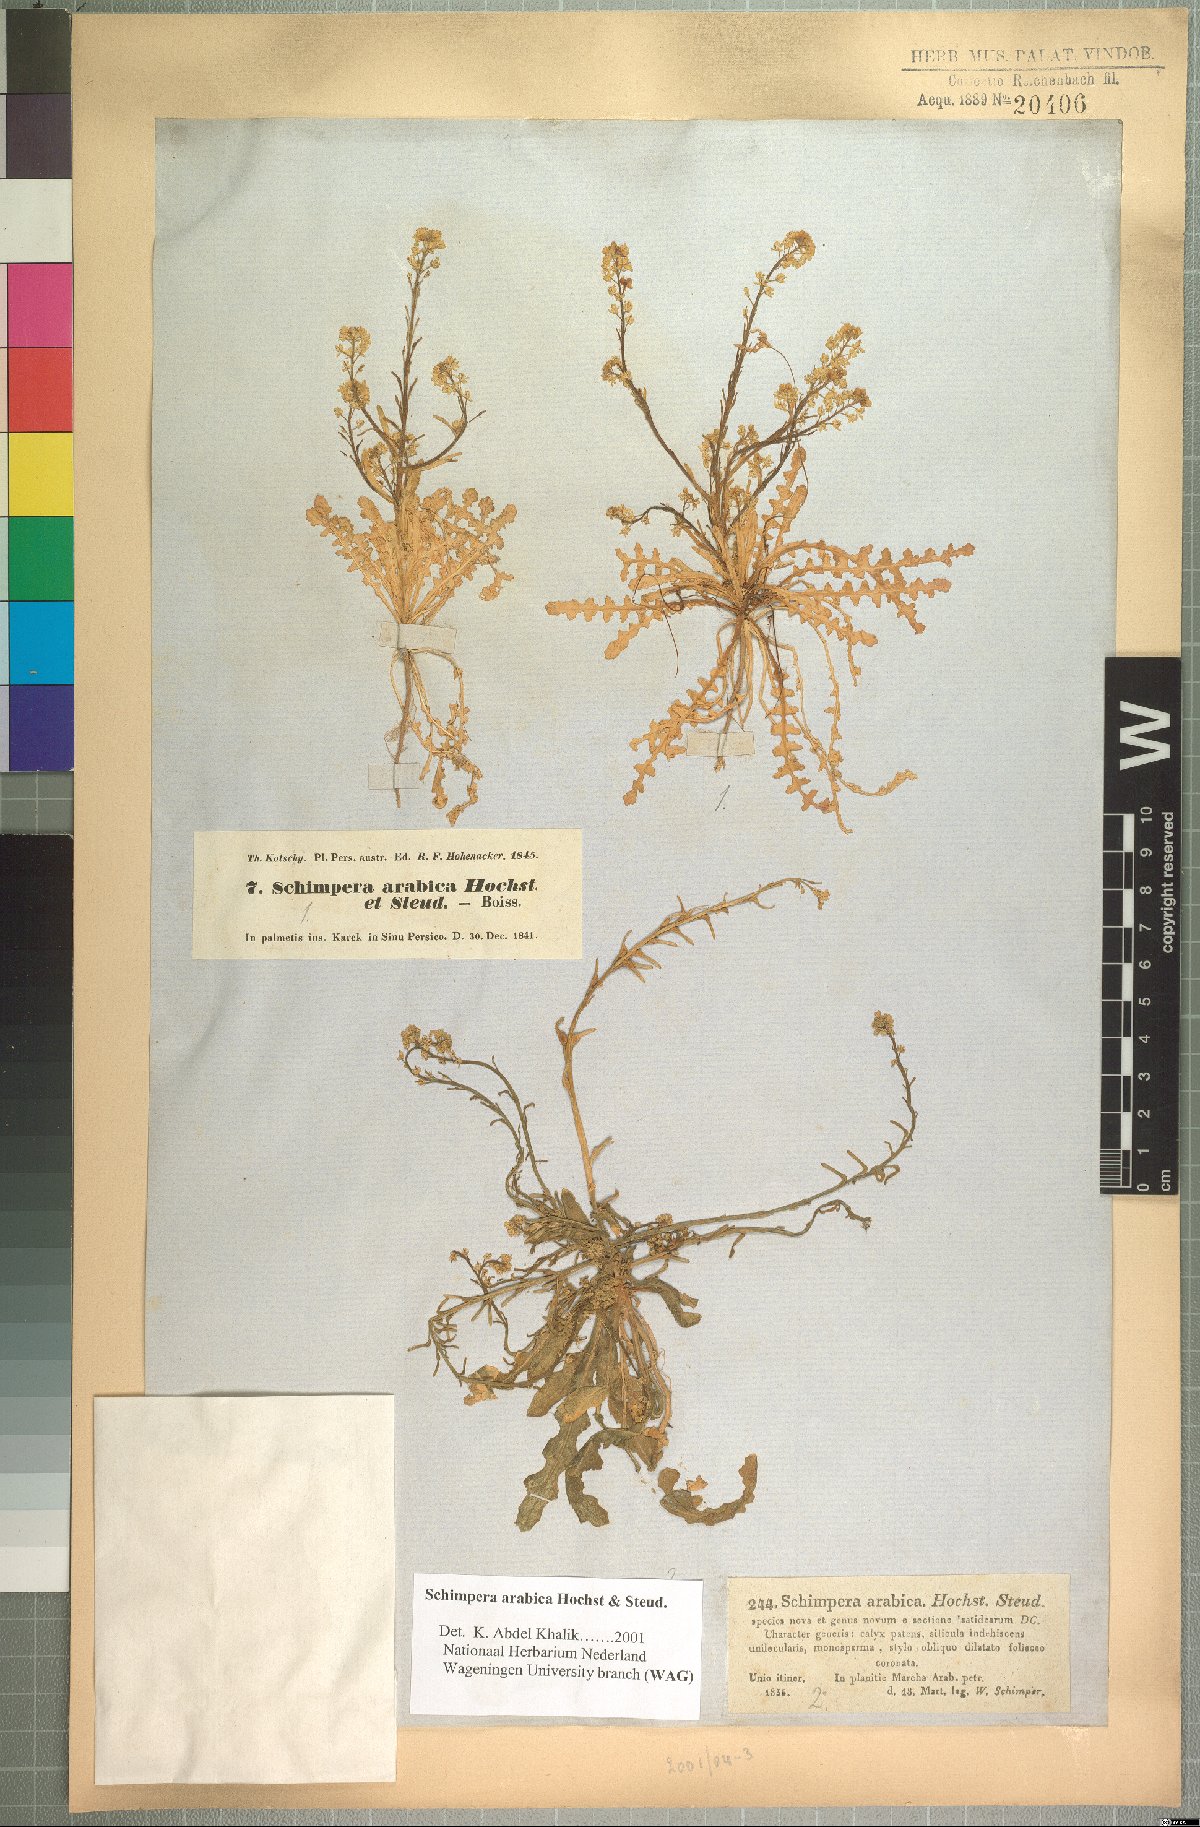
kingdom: Plantae
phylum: Tracheophyta
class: Magnoliopsida
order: Brassicales
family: Brassicaceae
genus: Schimpera
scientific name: Schimpera arabica
